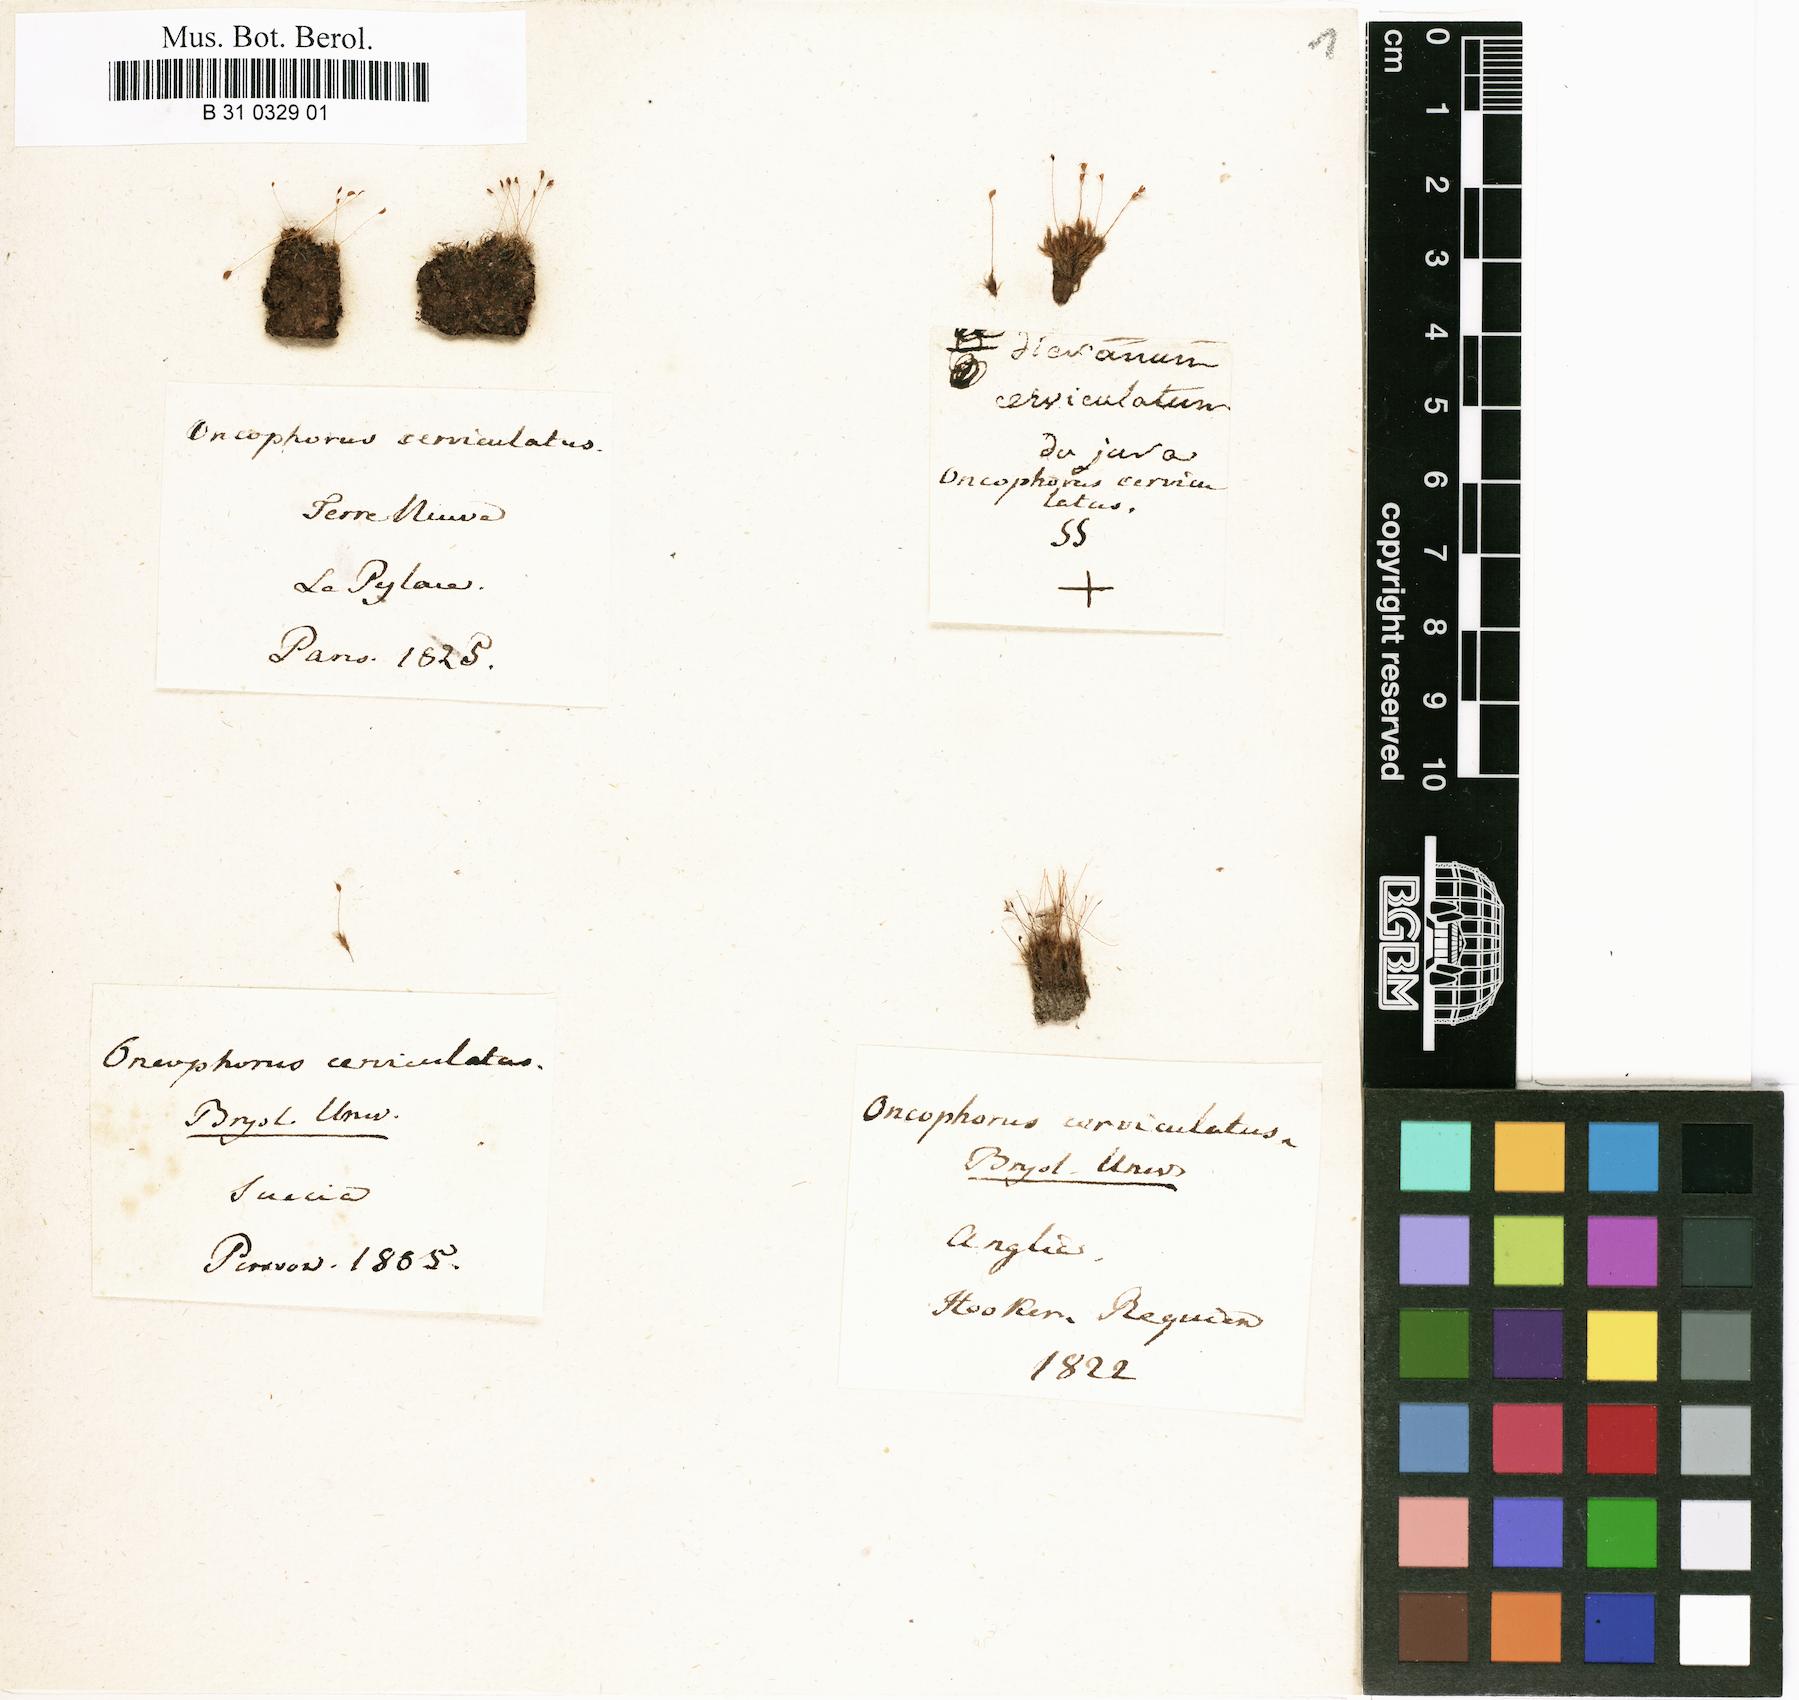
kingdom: Plantae
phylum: Bryophyta
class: Bryopsida
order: Dicranales
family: Dicranellaceae
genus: Dicranella
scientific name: Dicranella cerviculata
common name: Spur-necked forklet moss
